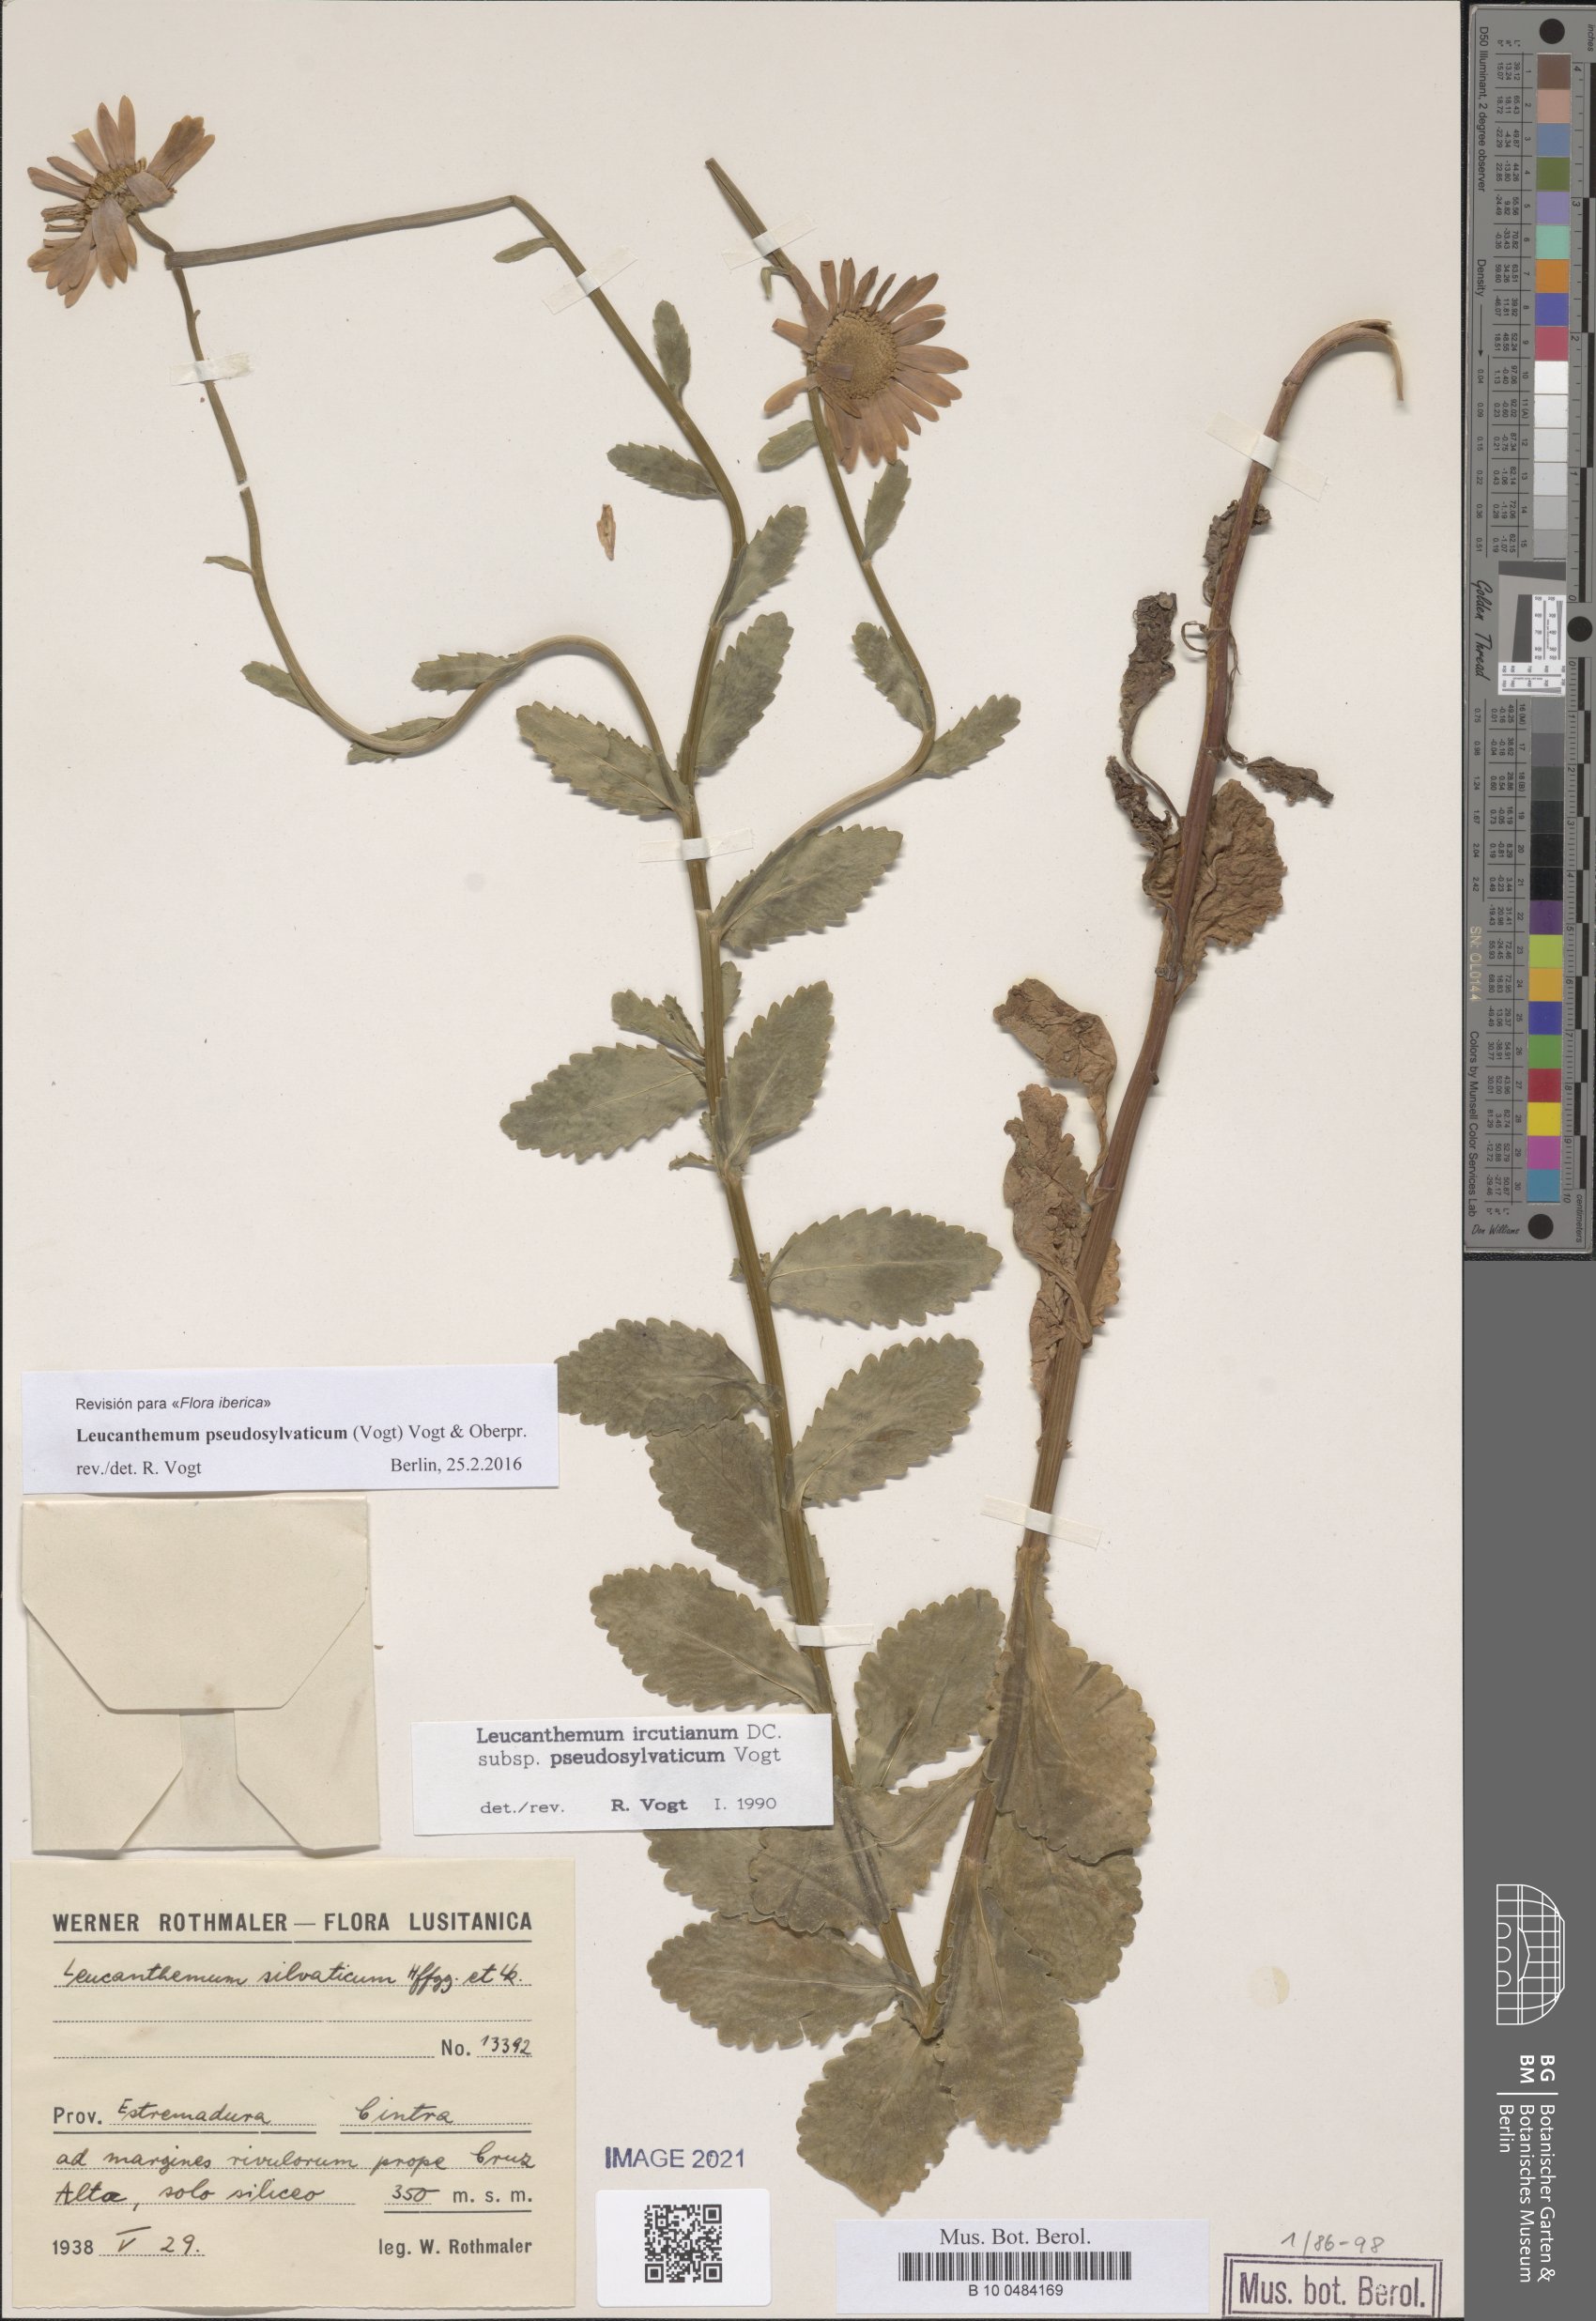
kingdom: Plantae
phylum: Tracheophyta
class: Magnoliopsida
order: Asterales
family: Asteraceae
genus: Leucanthemum
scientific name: Leucanthemum pseudosylvaticum
